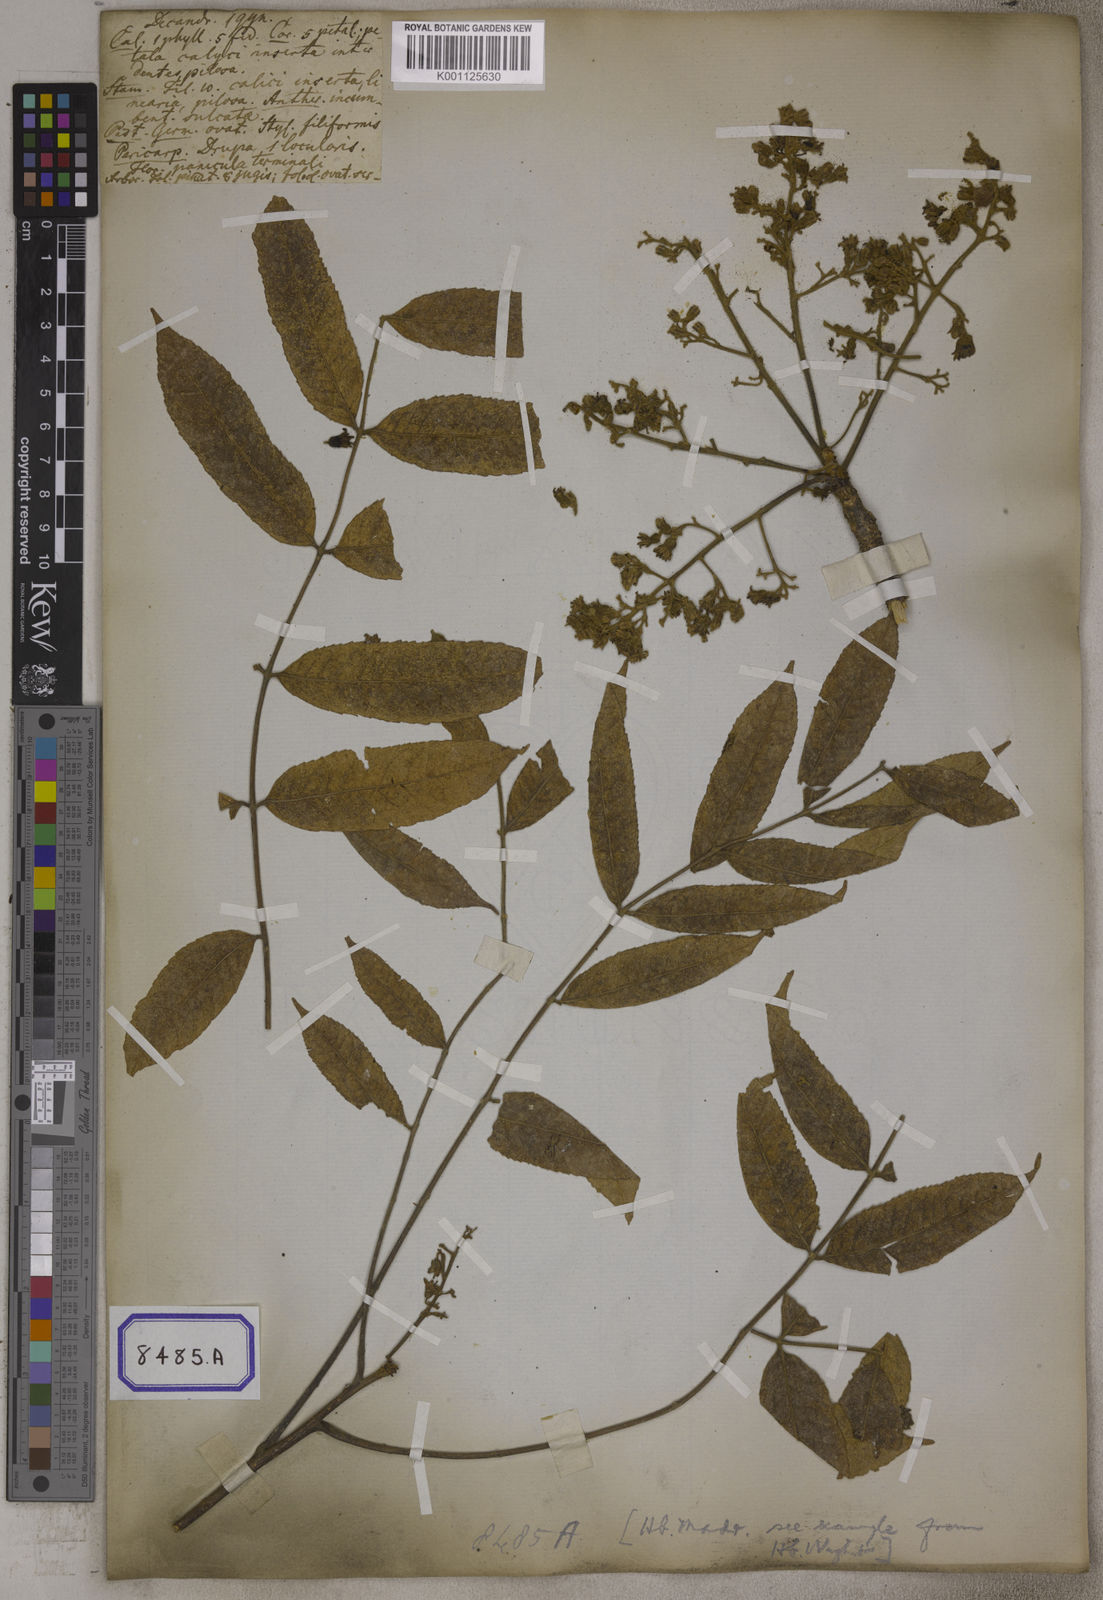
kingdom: Plantae
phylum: Tracheophyta
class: Magnoliopsida
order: Sapindales
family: Burseraceae
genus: Garuga
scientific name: Garuga pinnata
